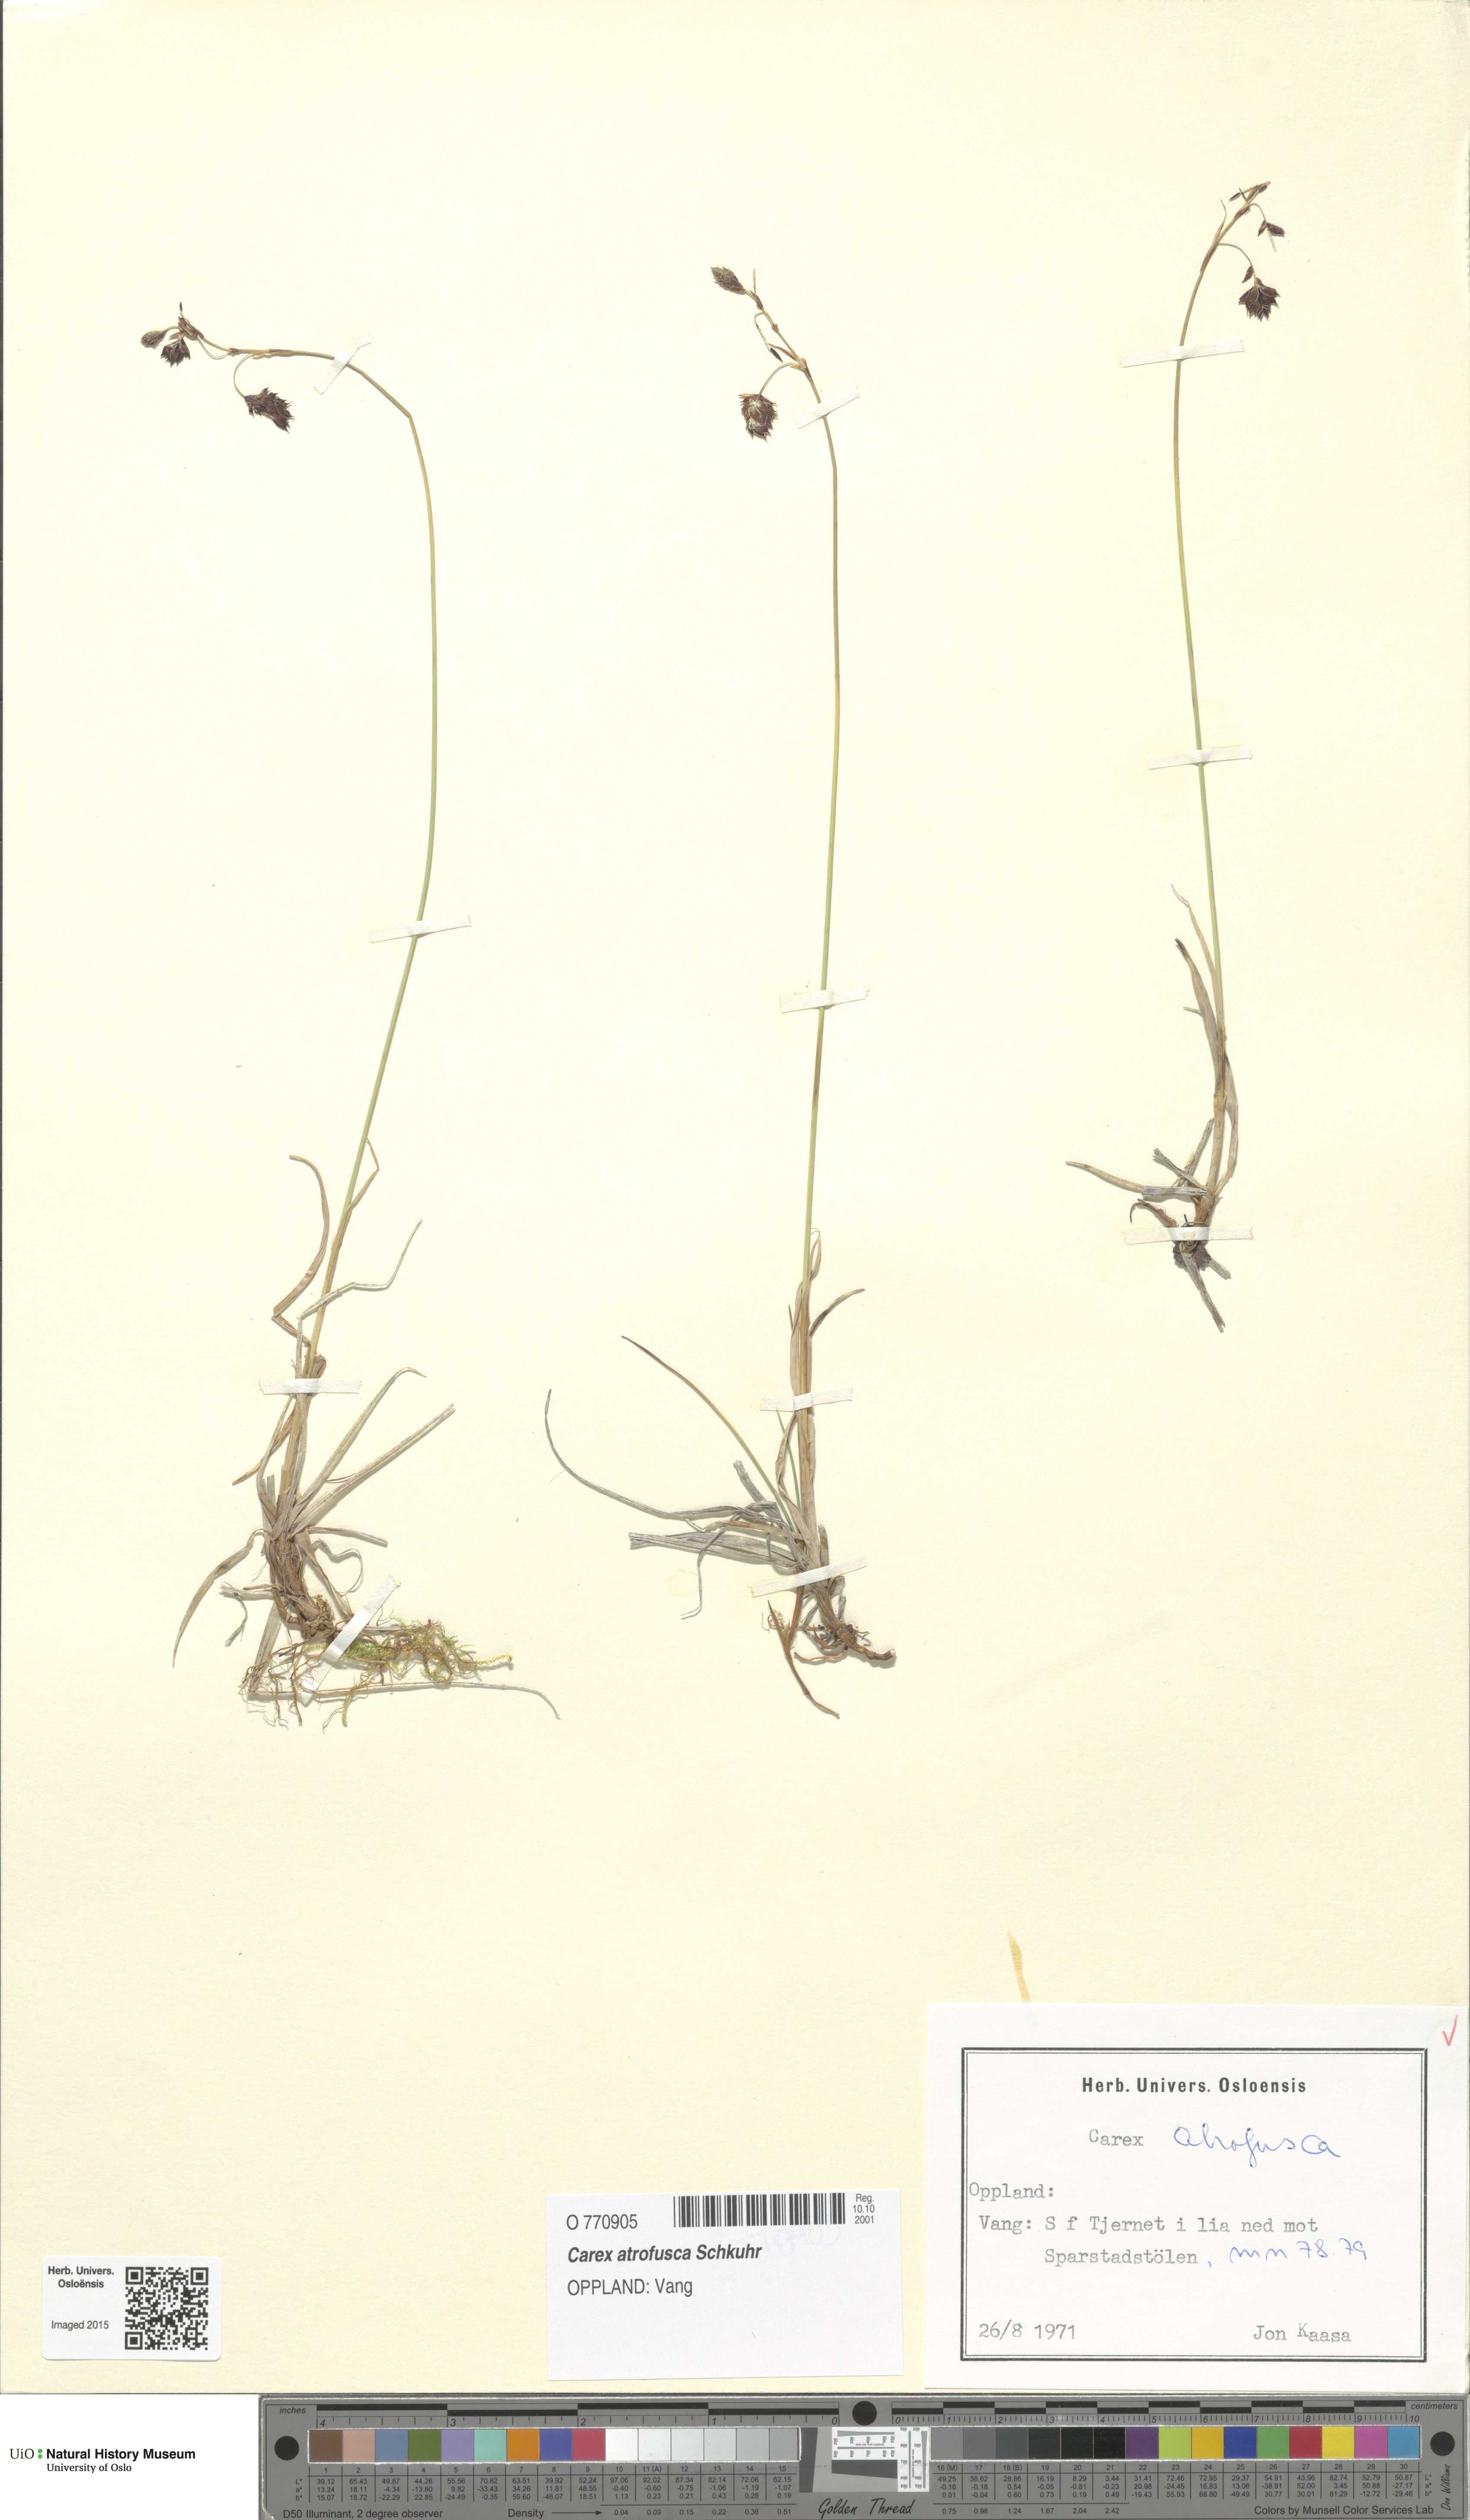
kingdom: Plantae
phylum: Tracheophyta
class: Liliopsida
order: Poales
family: Cyperaceae
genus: Carex
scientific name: Carex atrofusca
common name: Scorched alpine-sedge
